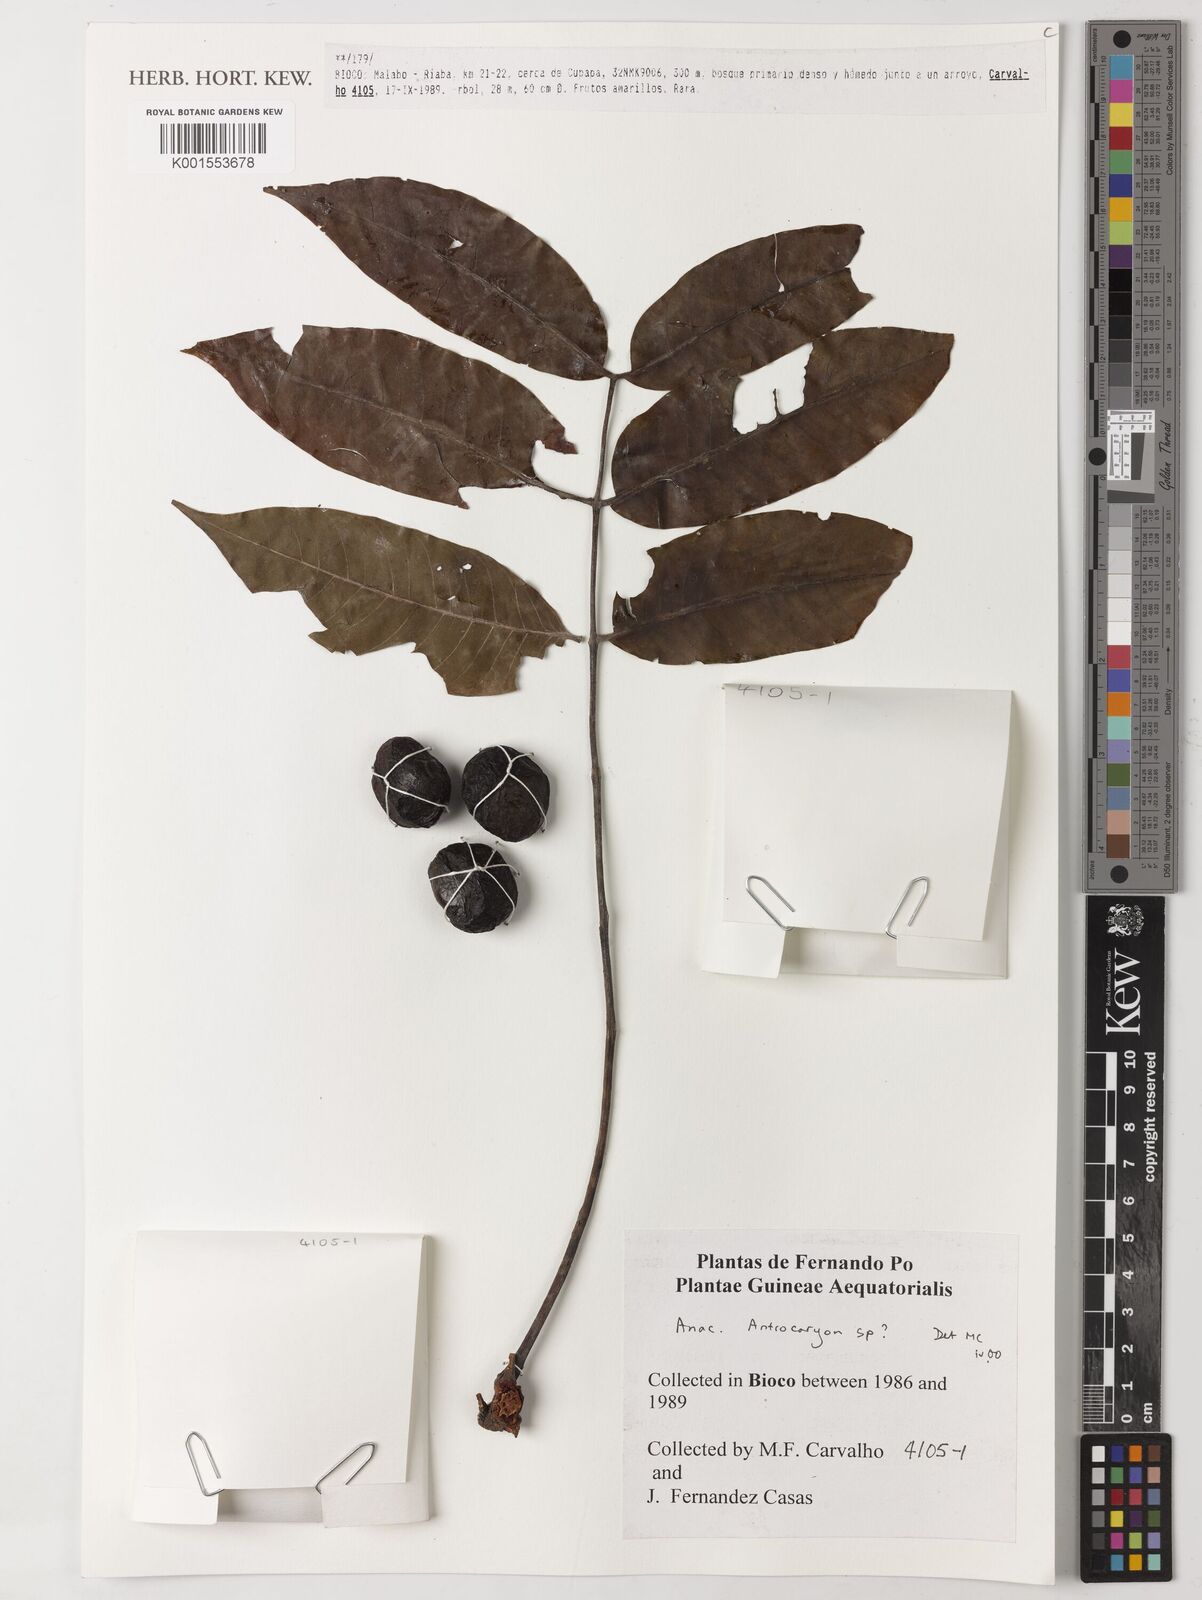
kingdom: Plantae
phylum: Tracheophyta
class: Magnoliopsida
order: Sapindales
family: Anacardiaceae
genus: Antrocaryon
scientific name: Antrocaryon
